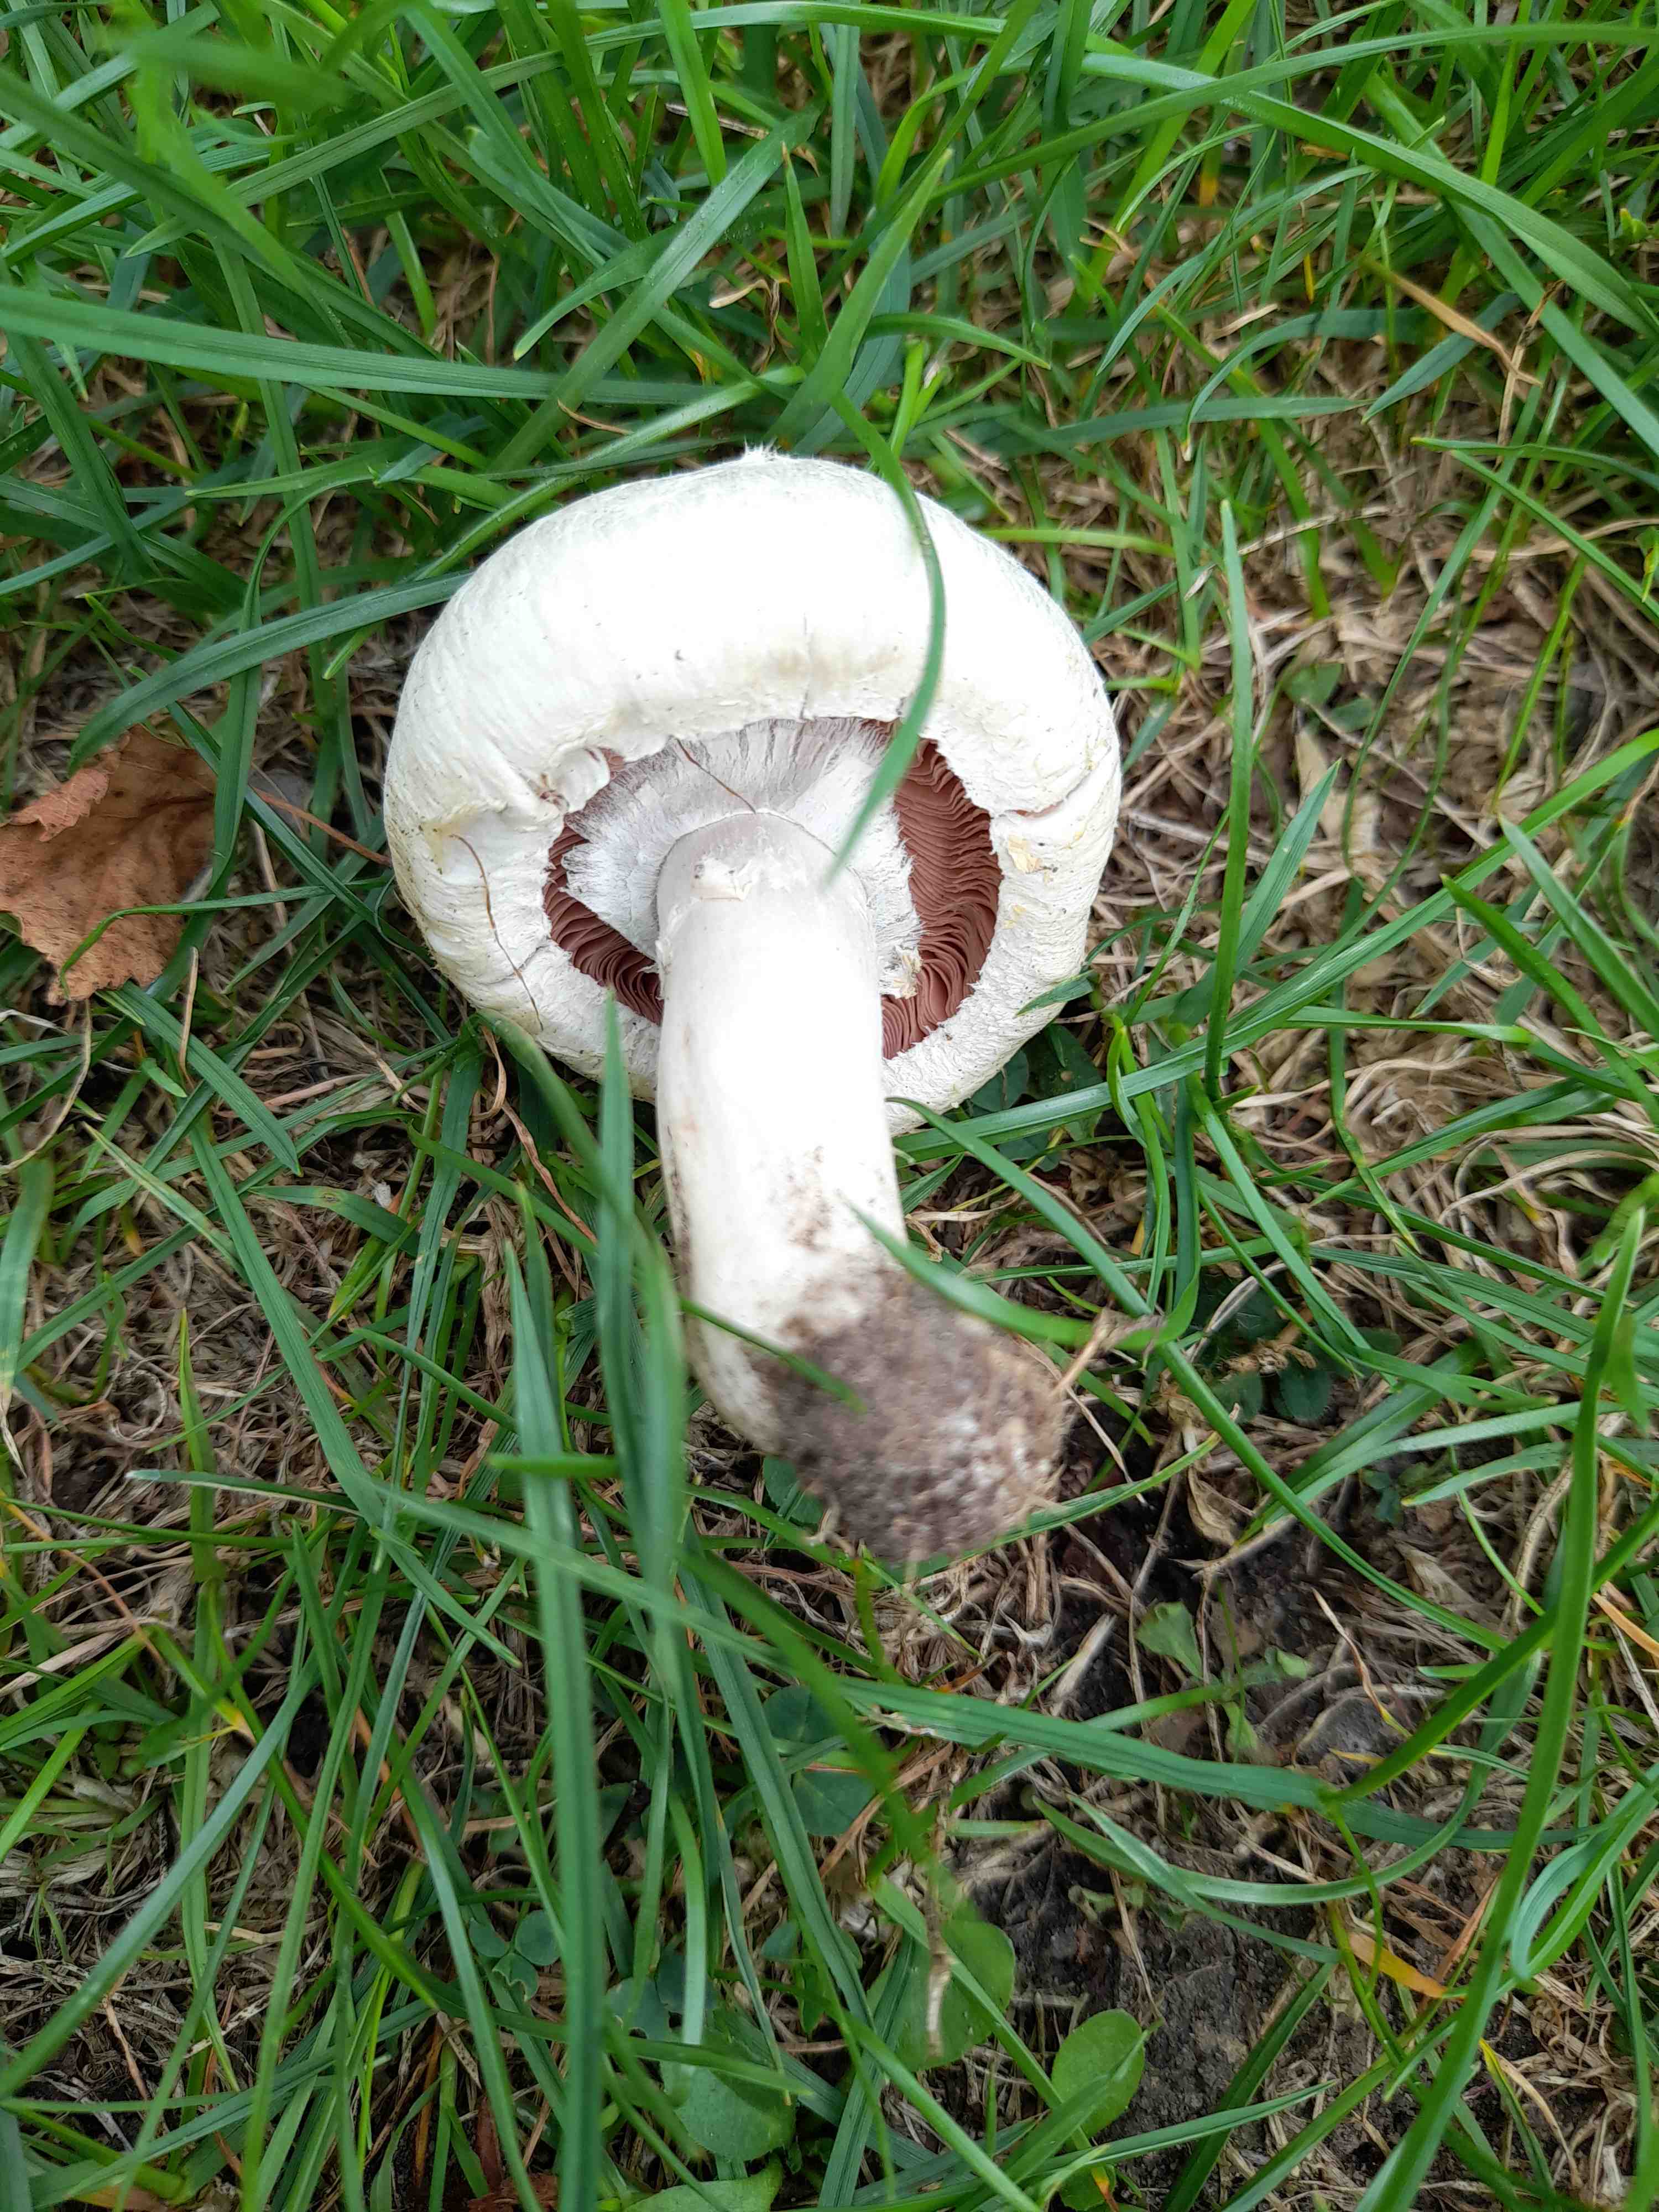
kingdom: Fungi
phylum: Basidiomycota
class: Agaricomycetes
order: Agaricales
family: Agaricaceae
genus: Agaricus
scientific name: Agaricus campestris
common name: mark-champignon
